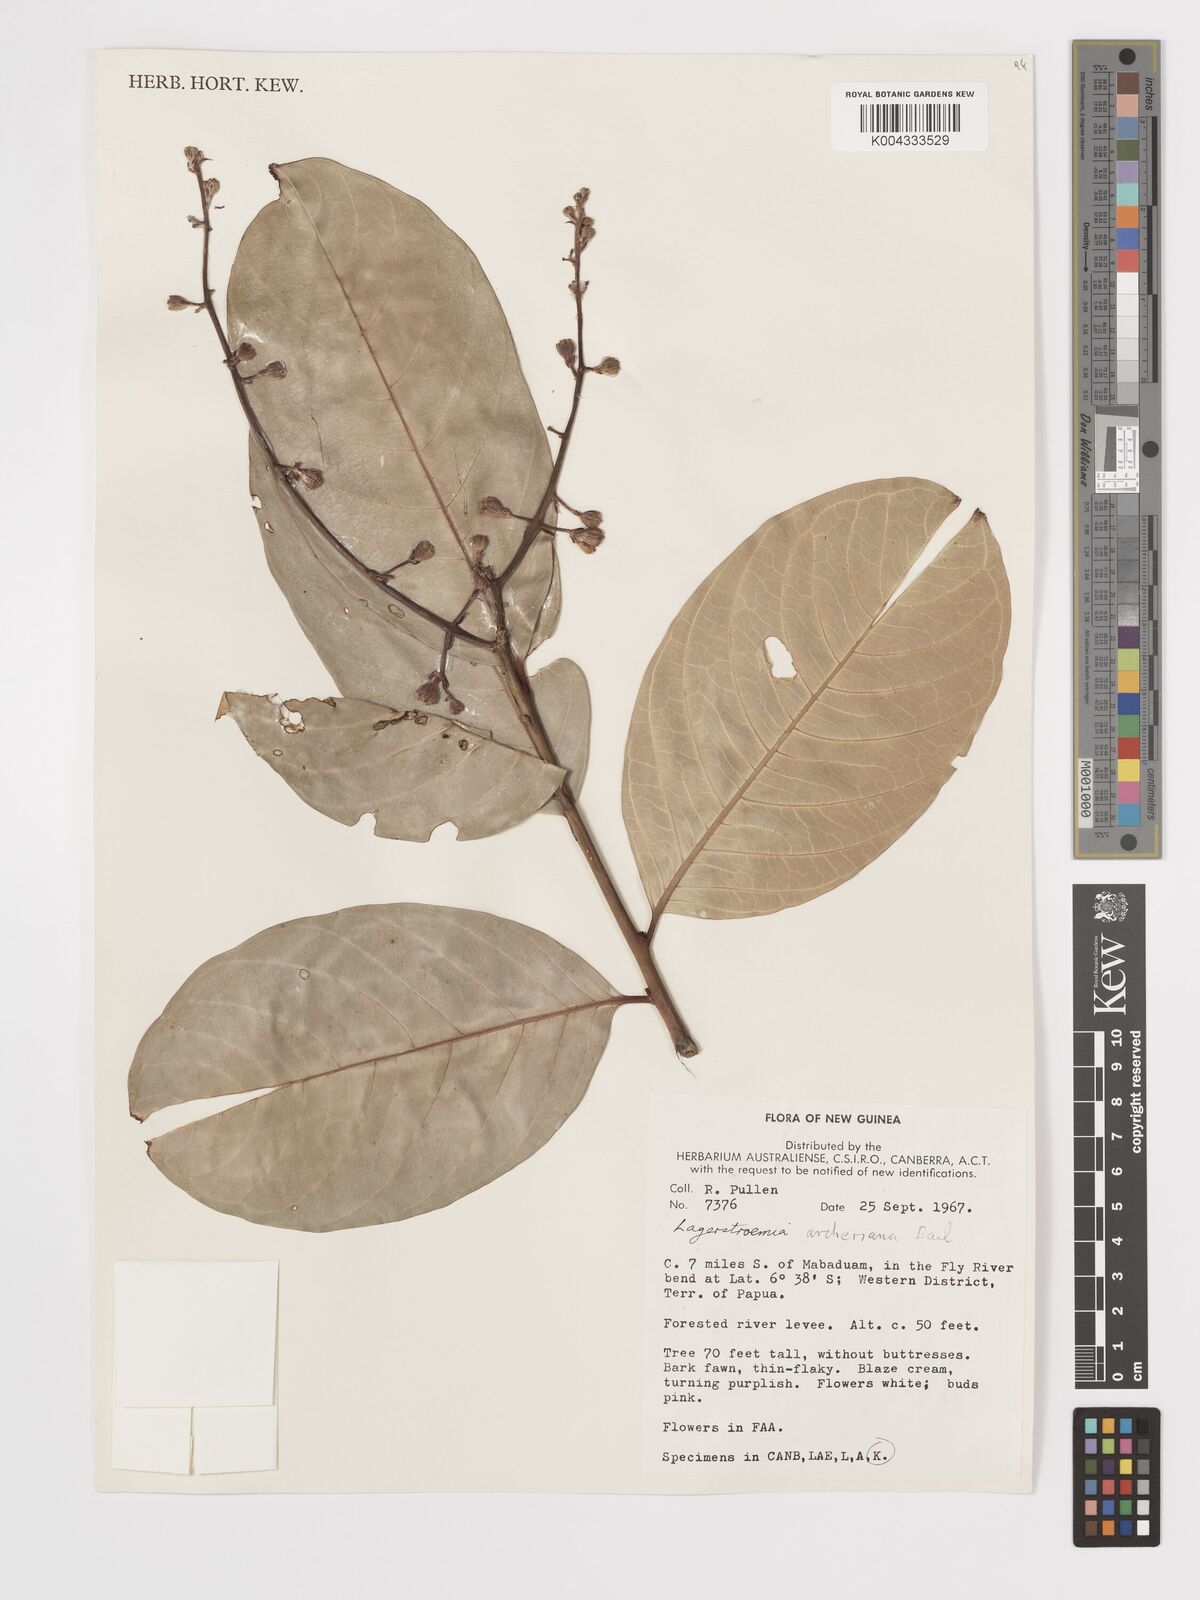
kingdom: Plantae
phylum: Tracheophyta
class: Magnoliopsida
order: Myrtales
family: Lythraceae
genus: Lagerstroemia
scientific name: Lagerstroemia engleriana
